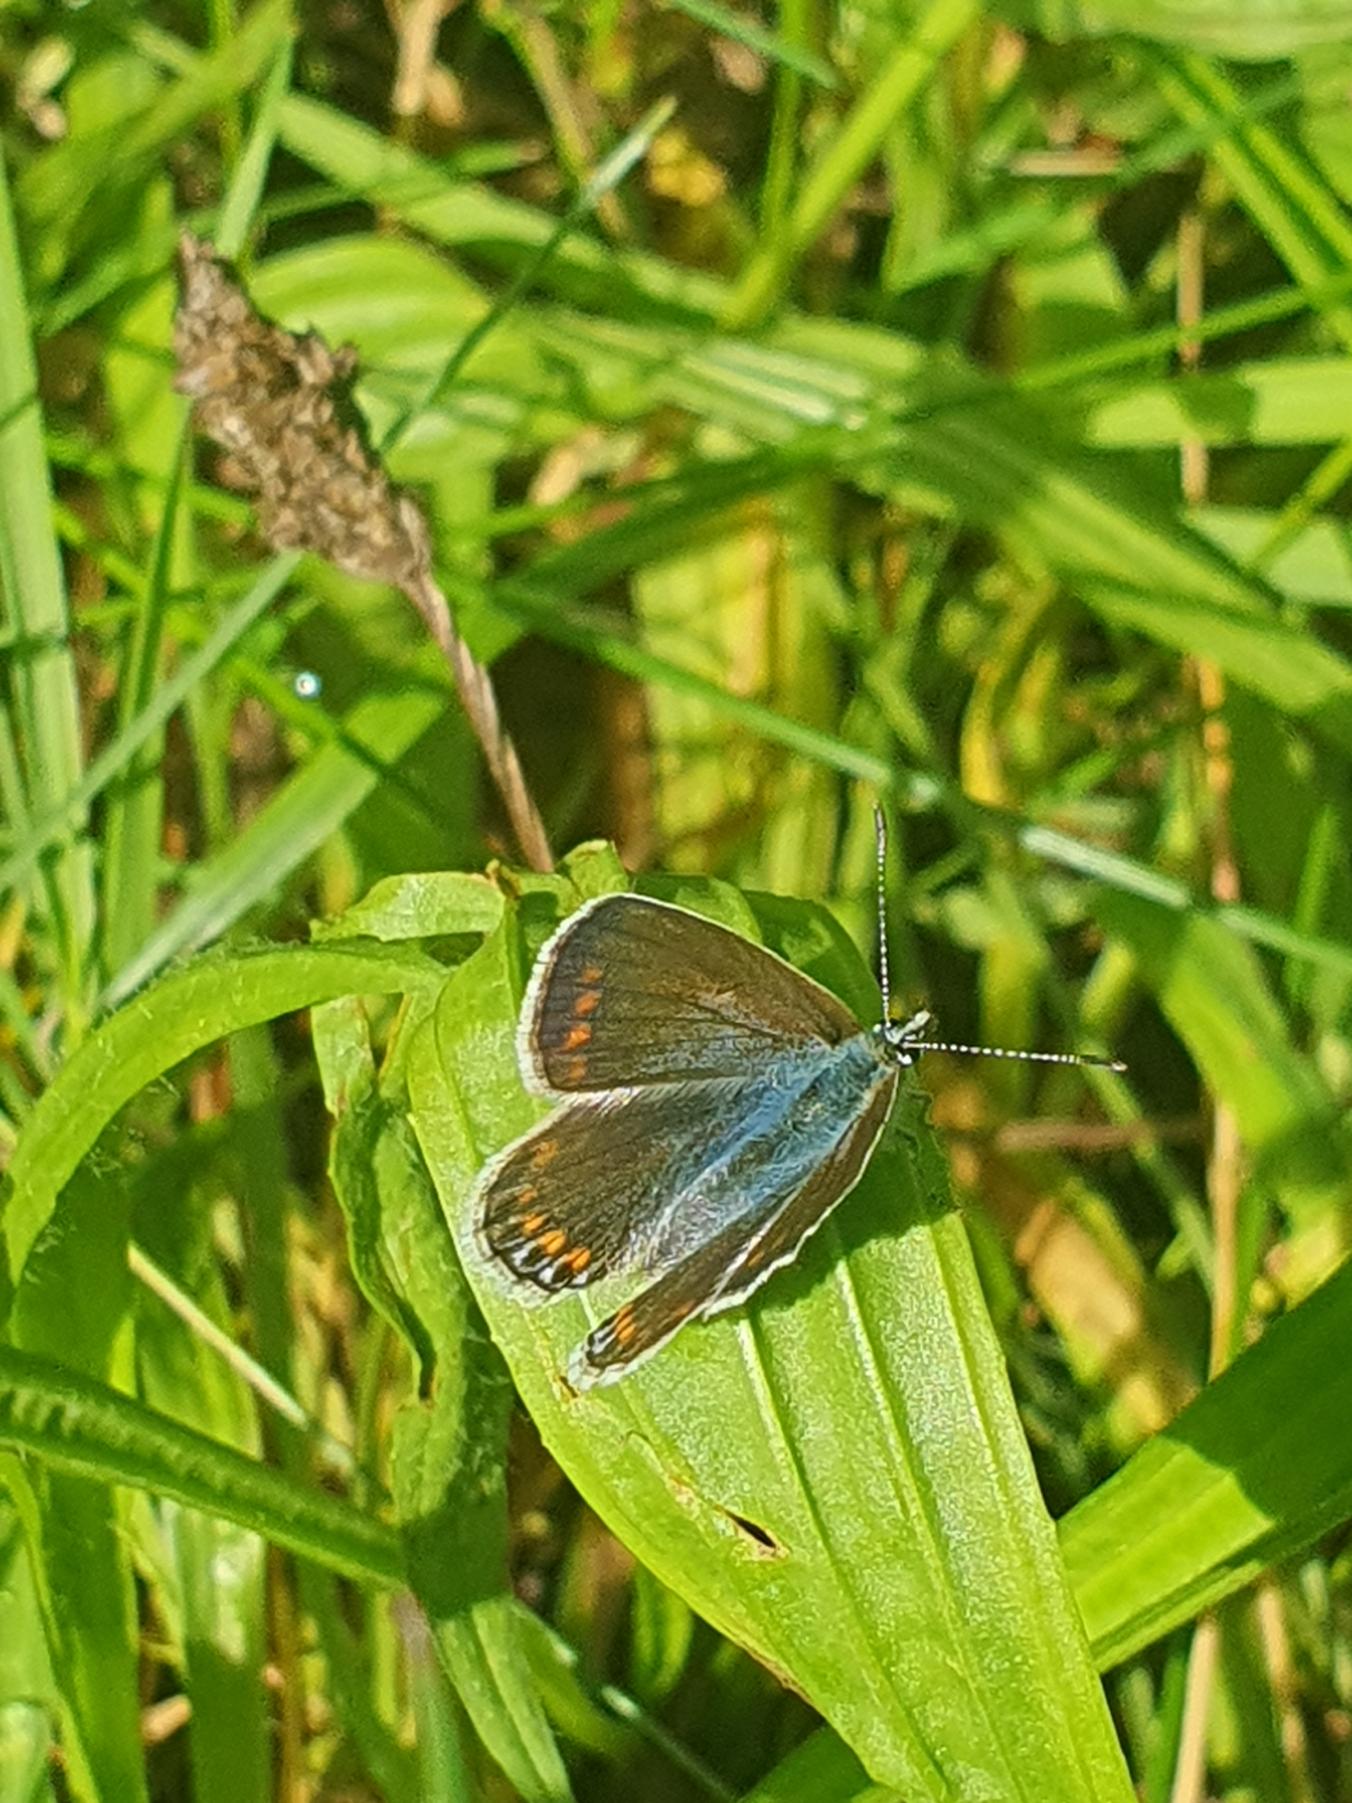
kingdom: Animalia
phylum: Arthropoda
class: Insecta
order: Lepidoptera
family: Lycaenidae
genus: Polyommatus
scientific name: Polyommatus icarus
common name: Almindelig blåfugl
